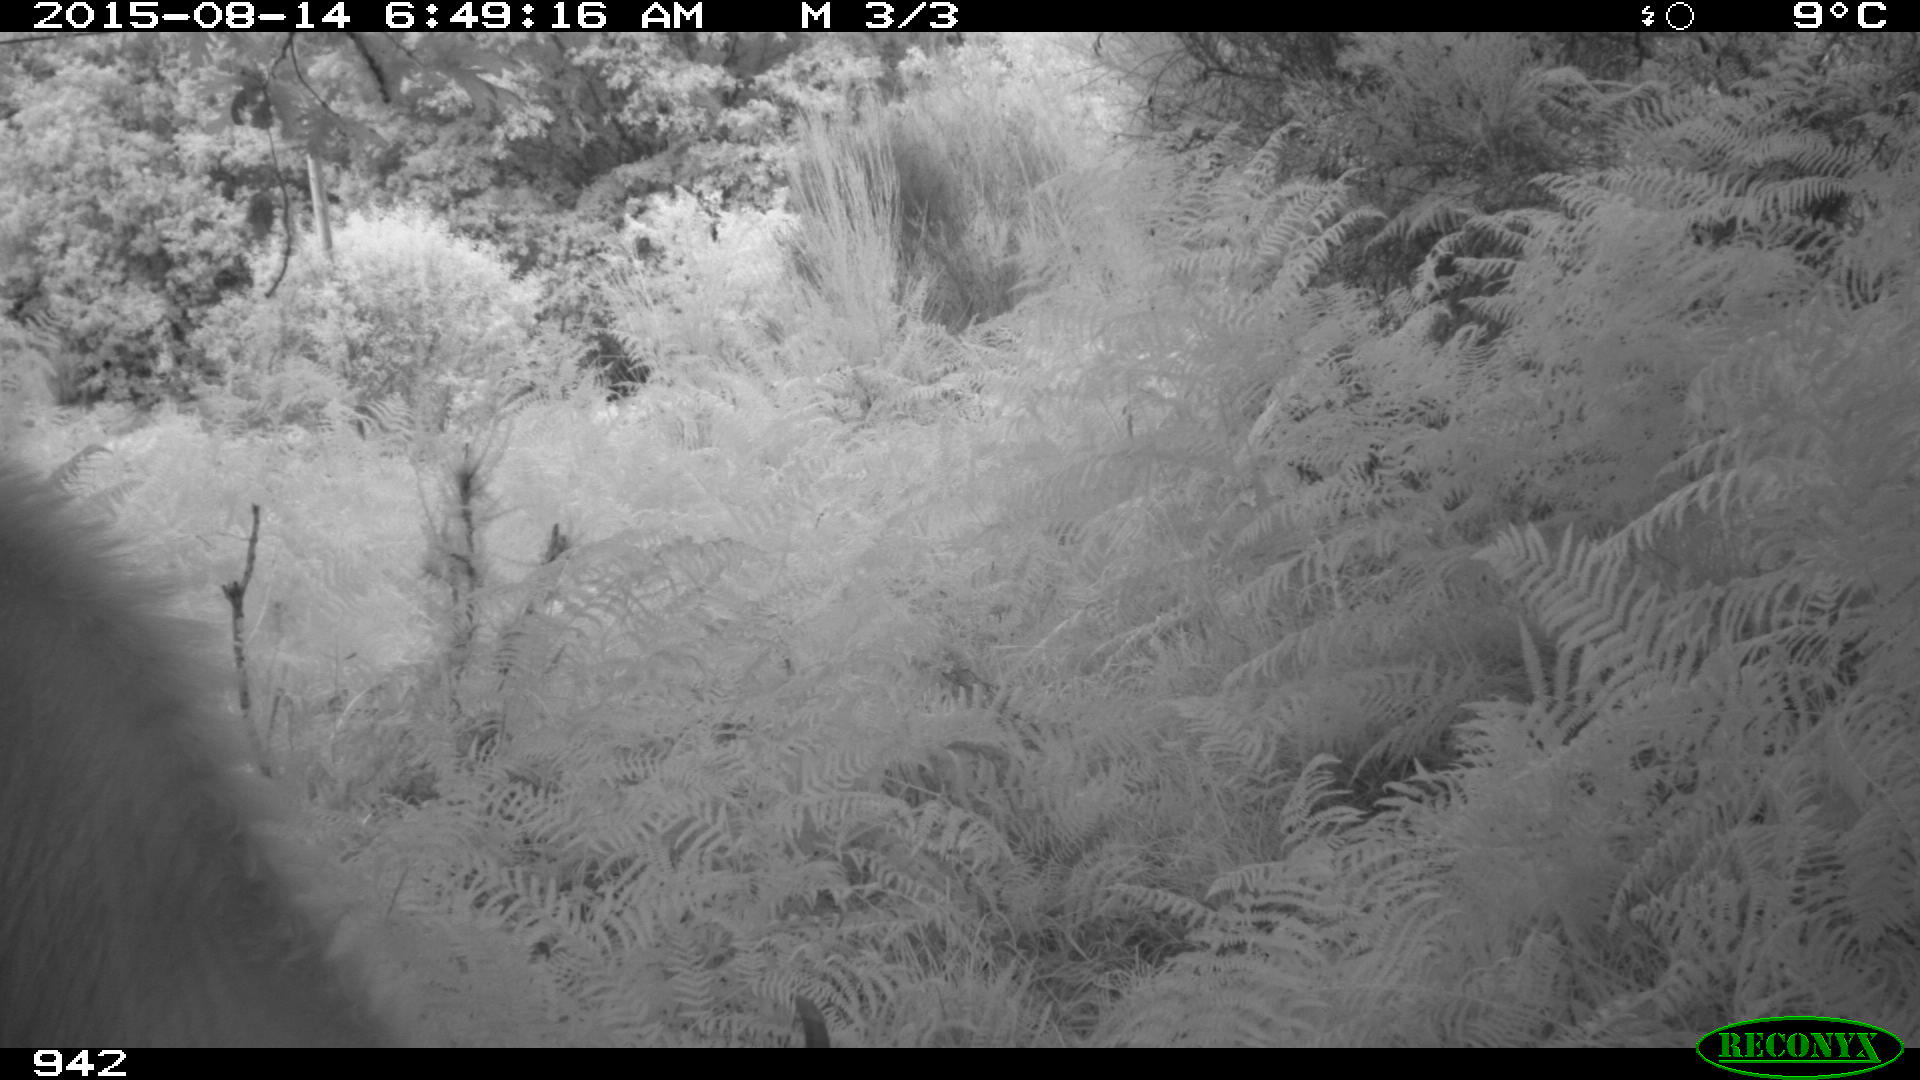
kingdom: Animalia
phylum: Chordata
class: Mammalia
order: Artiodactyla
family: Bovidae
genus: Bos
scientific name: Bos taurus
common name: Domesticated cattle
